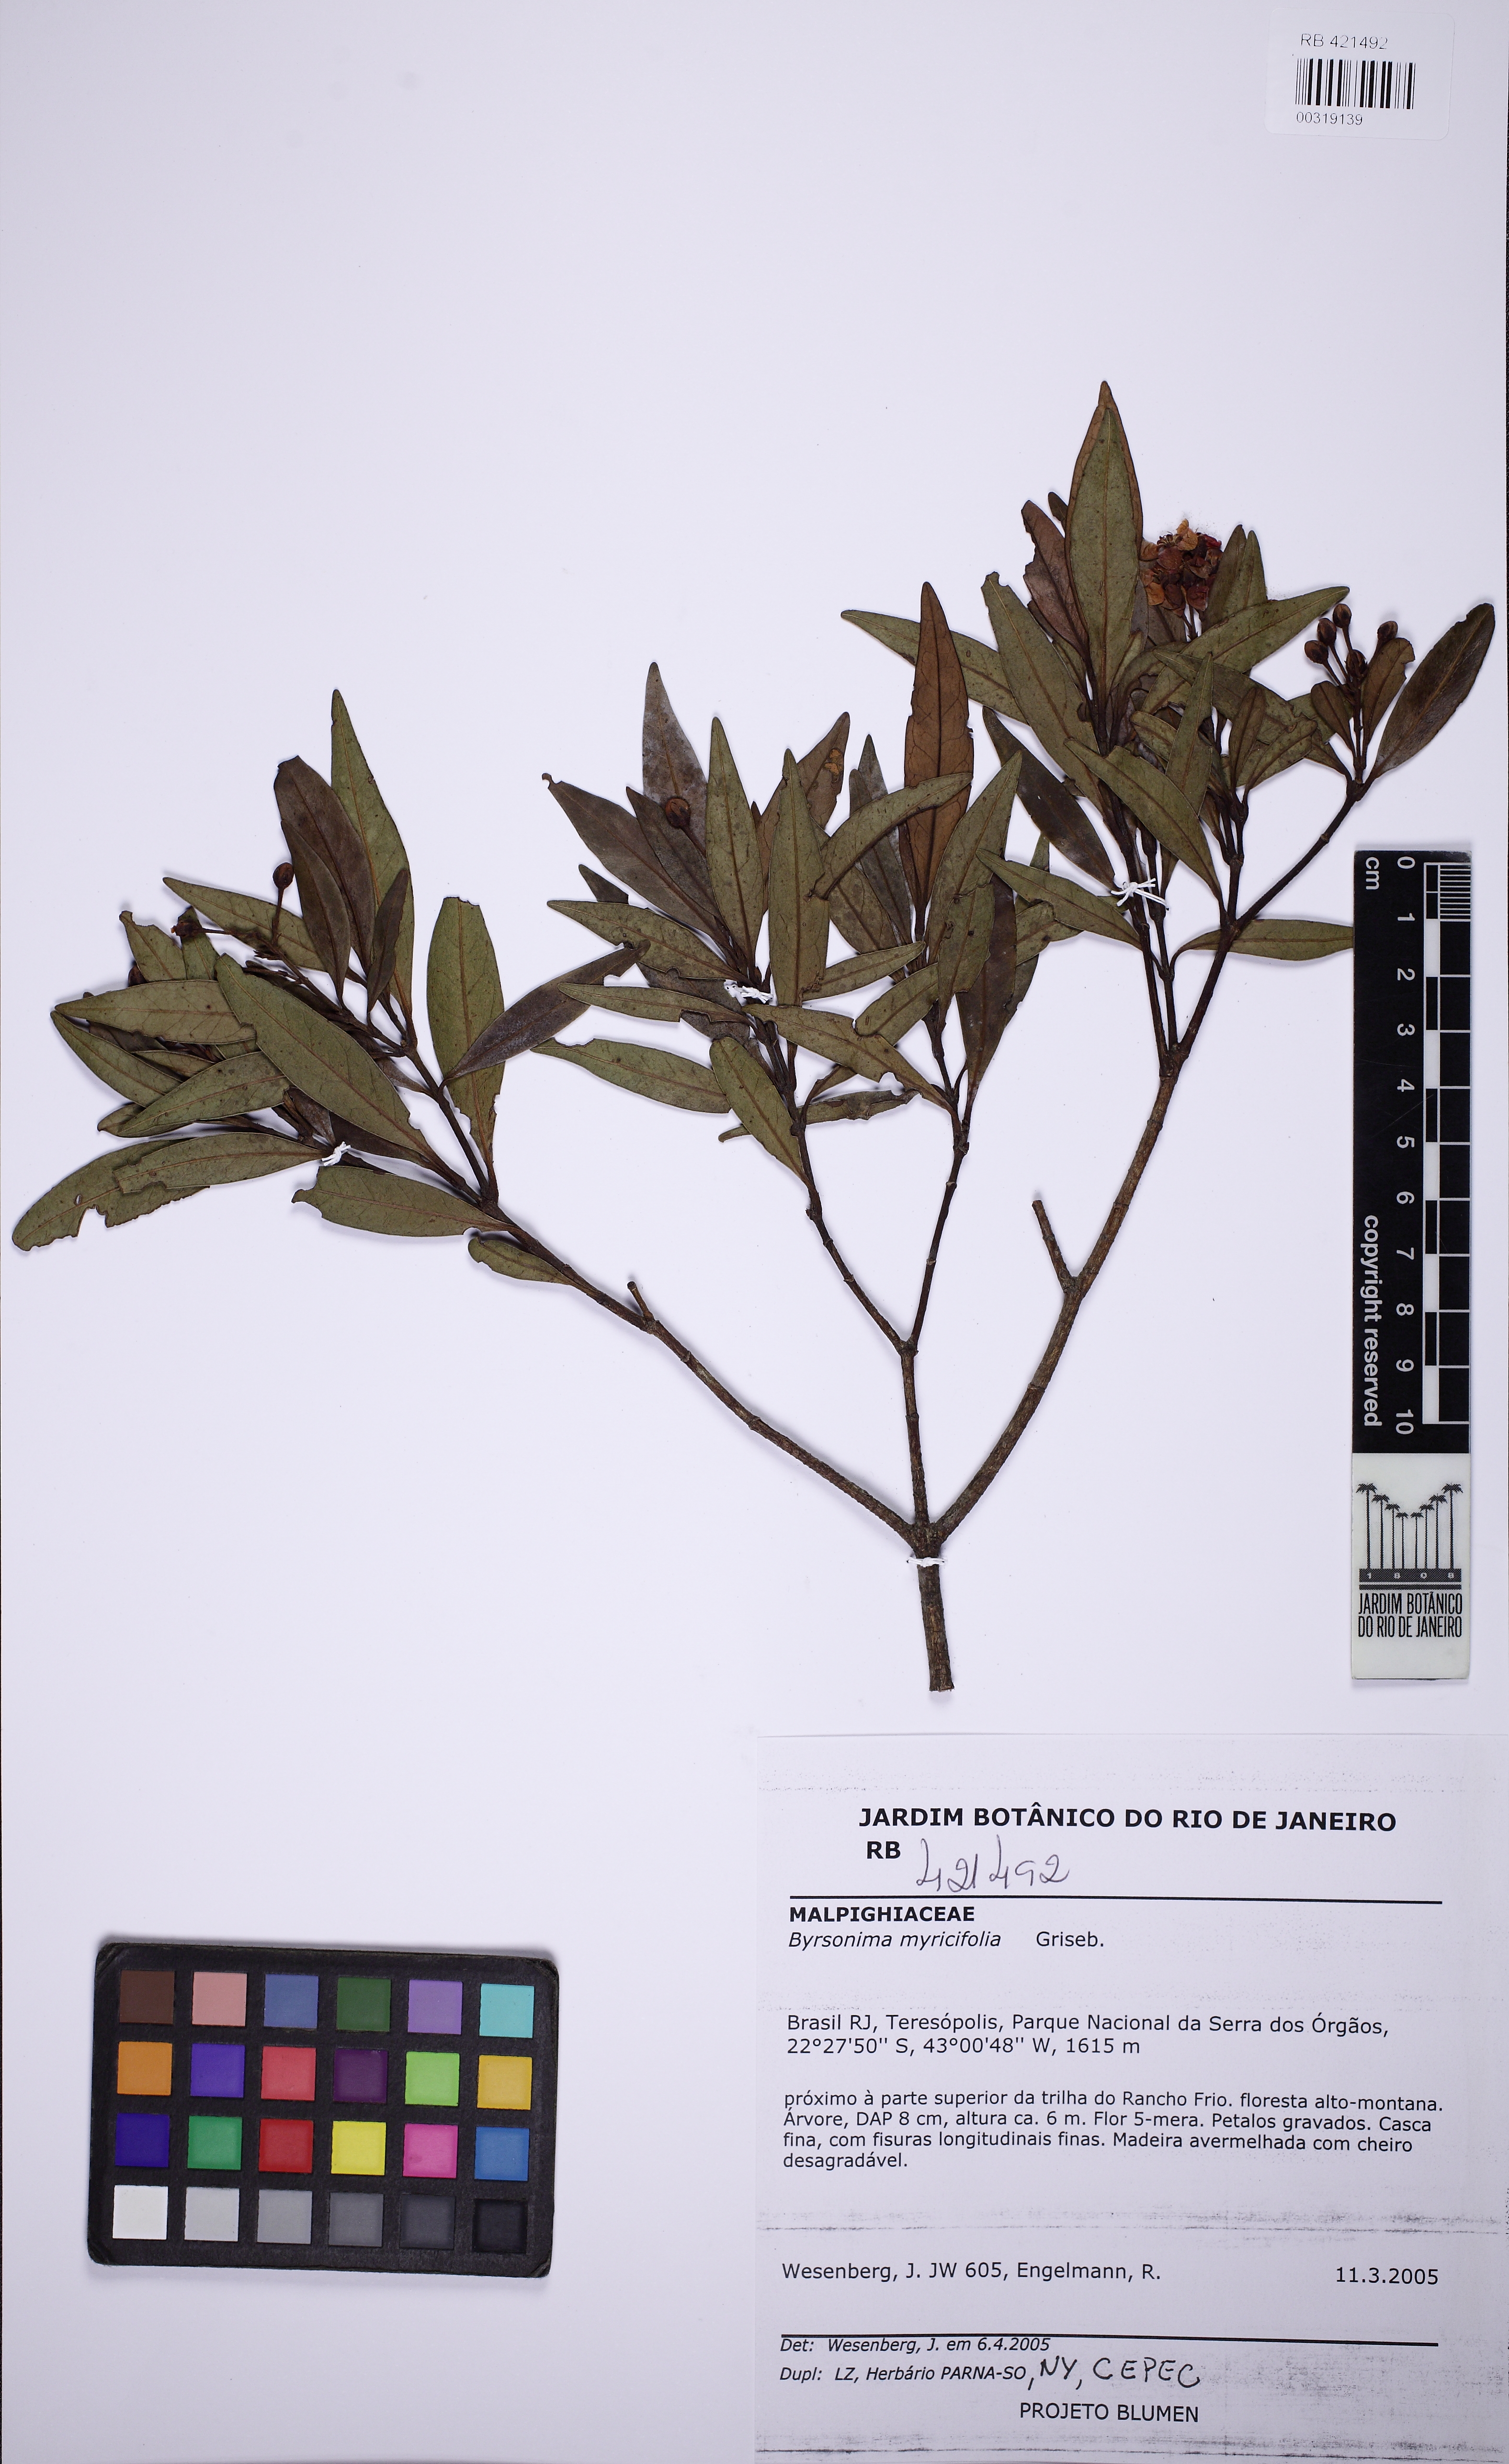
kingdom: Plantae
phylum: Tracheophyta
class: Magnoliopsida
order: Malpighiales
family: Malpighiaceae
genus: Byrsonima
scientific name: Byrsonima myricifolia
